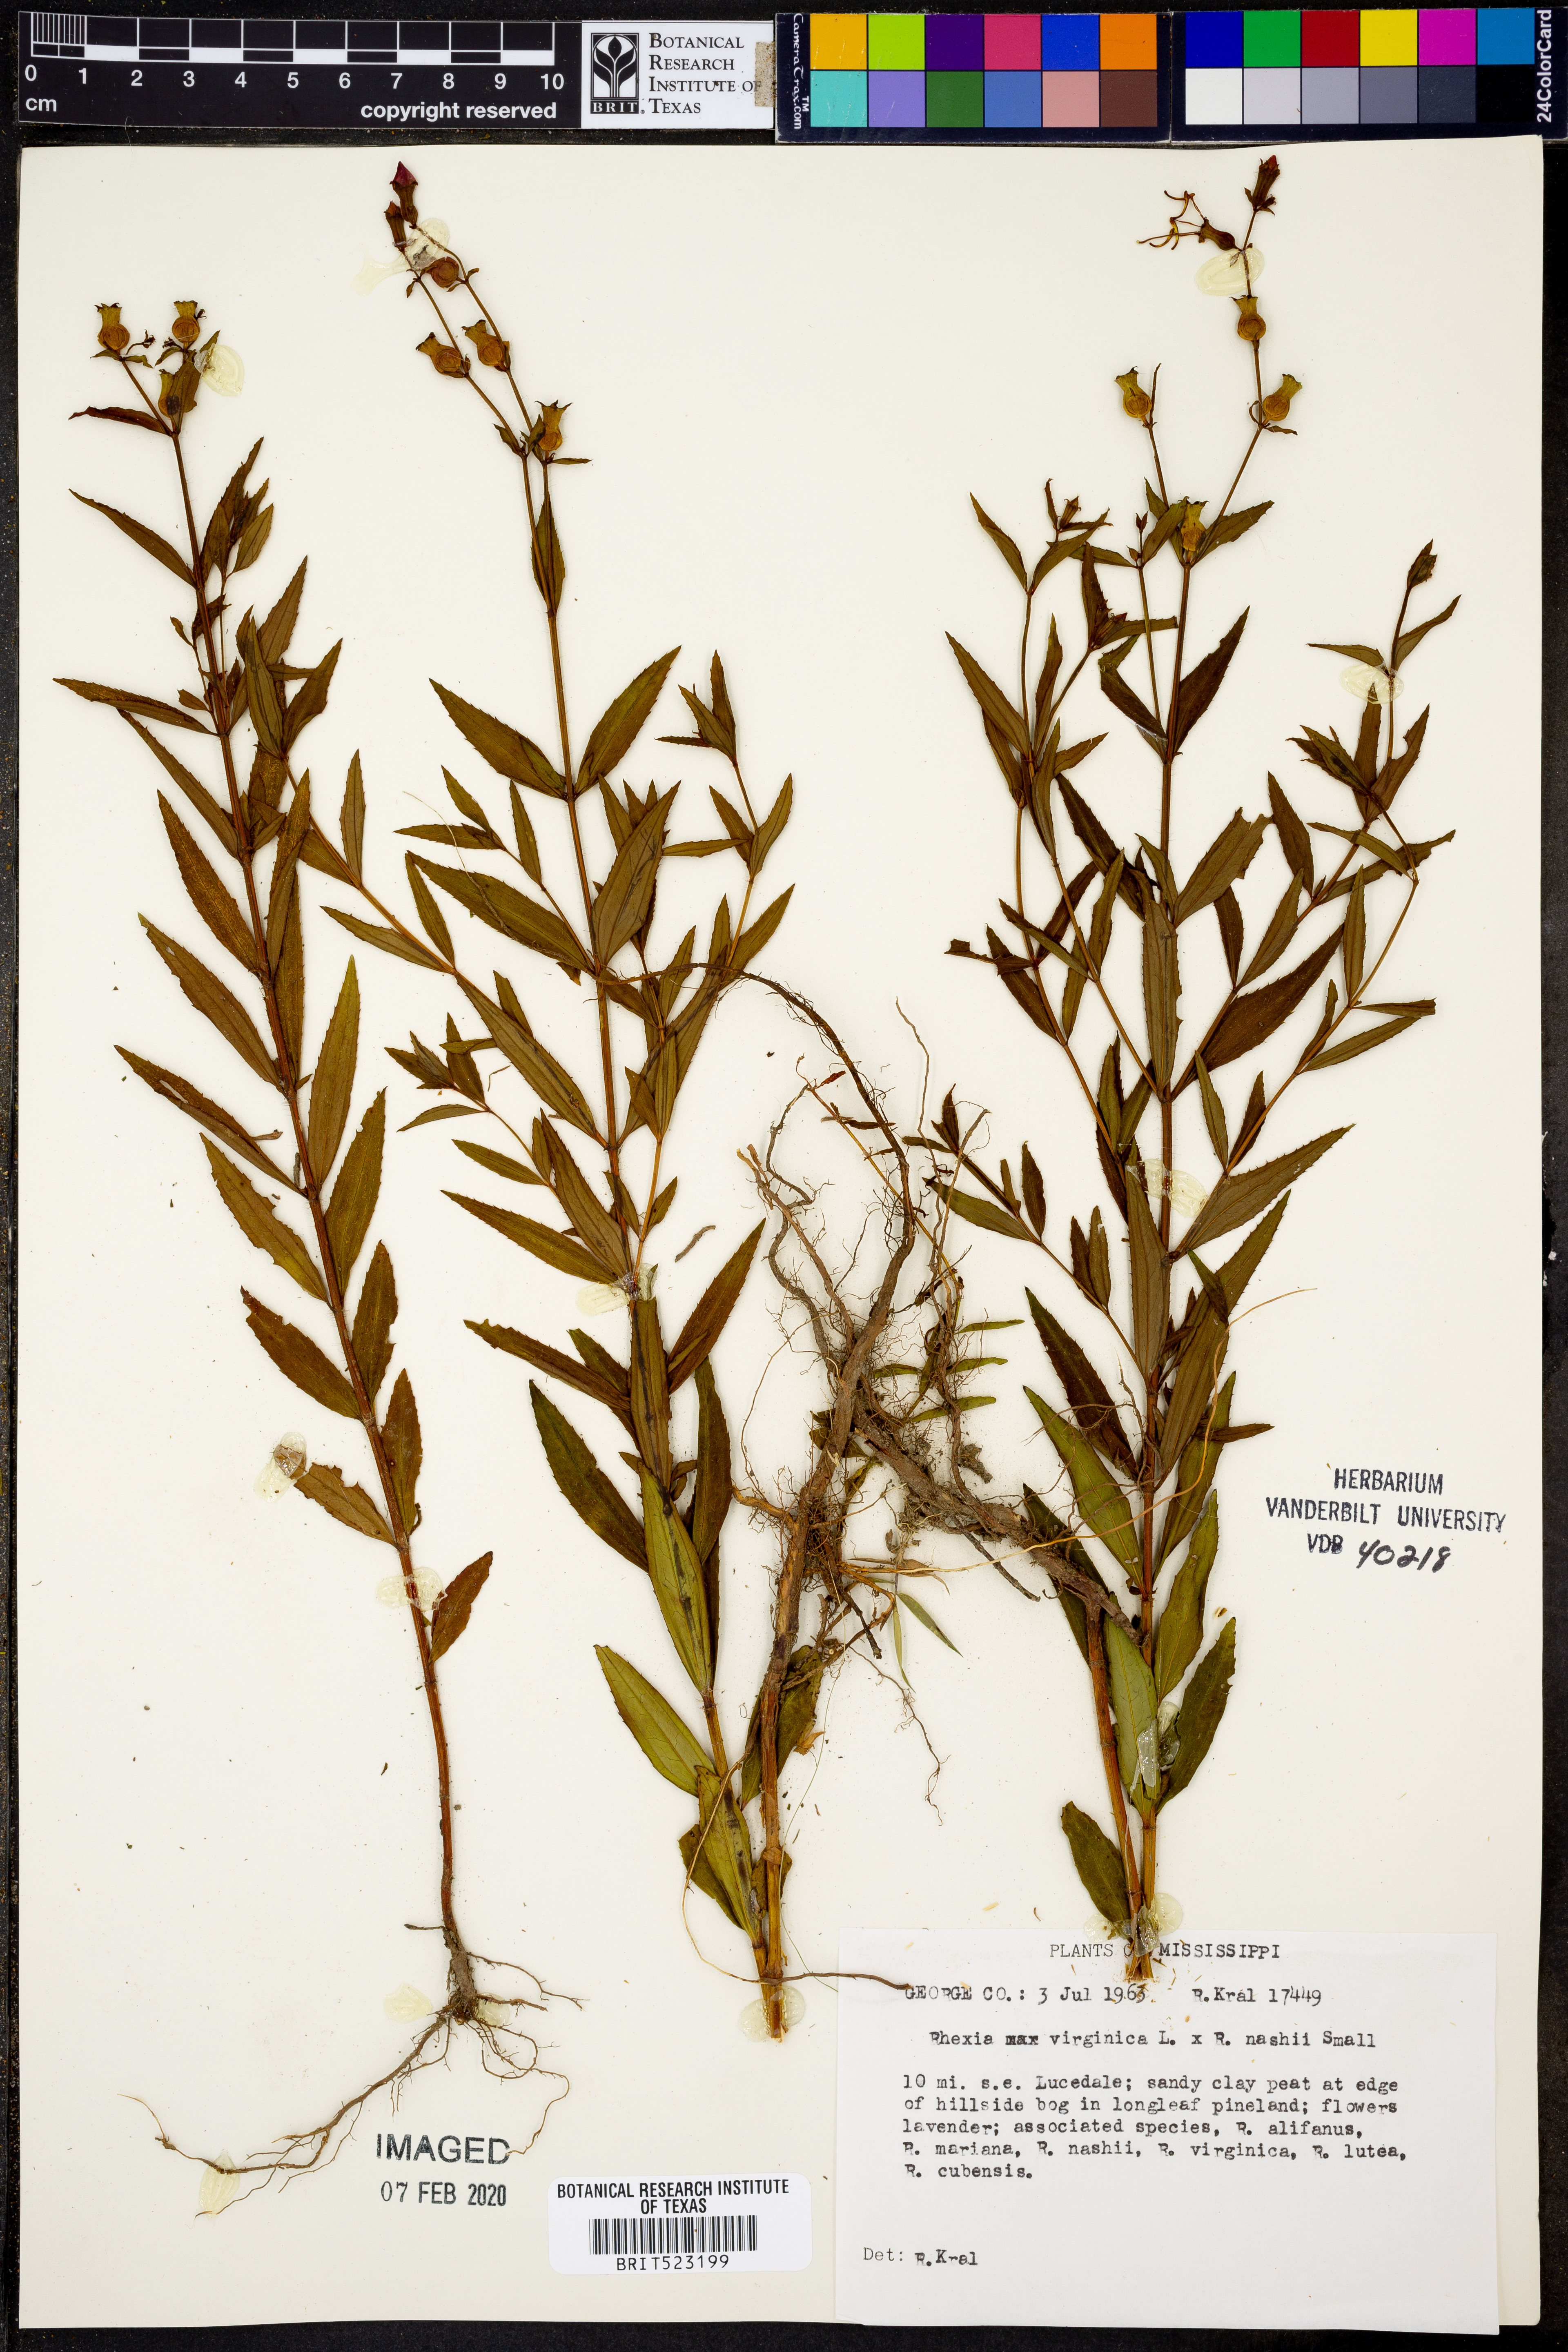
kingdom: Plantae
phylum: Tracheophyta
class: Magnoliopsida
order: Myrtales
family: Melastomataceae
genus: Rhexia
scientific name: Rhexia virginica
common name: Common meadow beauty
